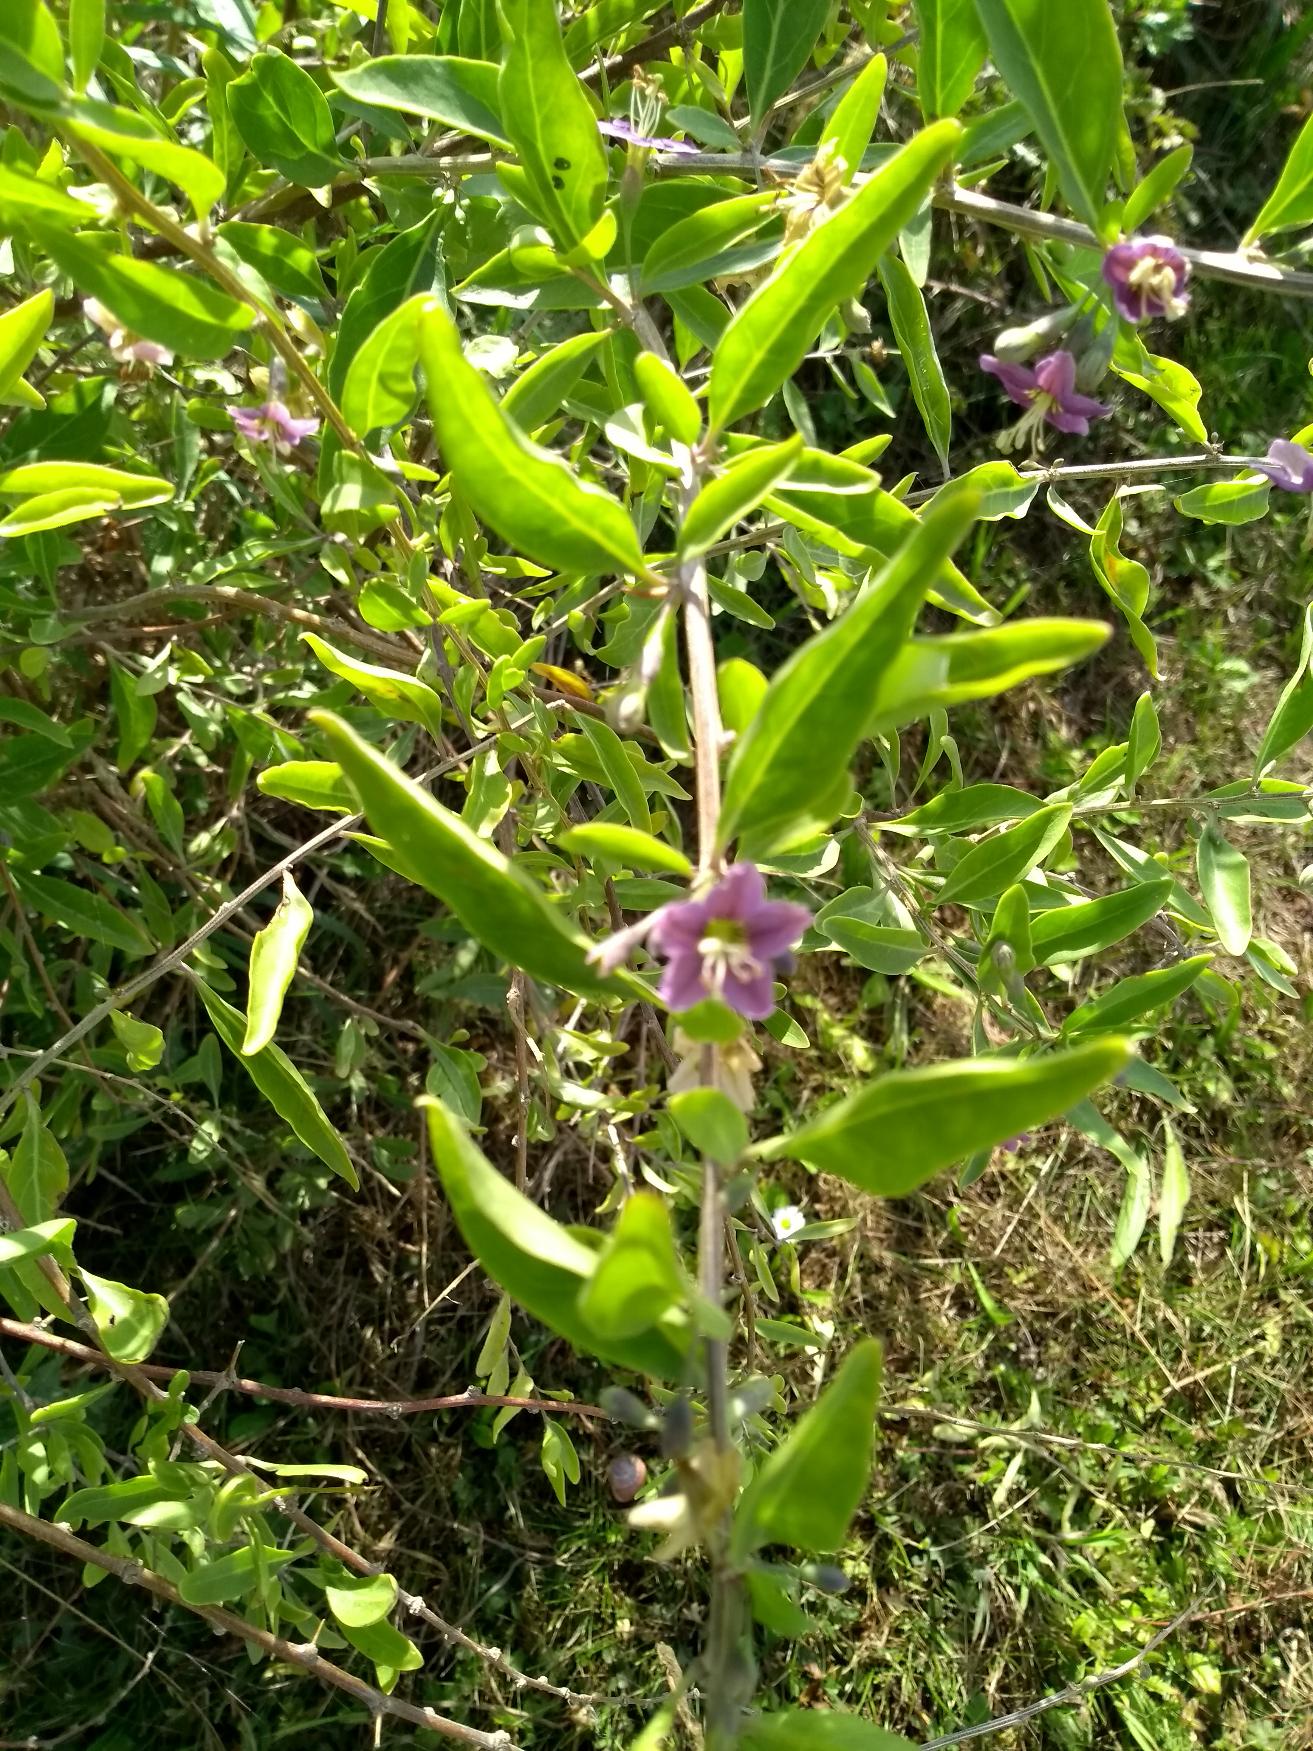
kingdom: Plantae
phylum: Tracheophyta
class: Magnoliopsida
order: Solanales
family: Solanaceae
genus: Lycium
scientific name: Lycium barbarum
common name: Bukketorn
